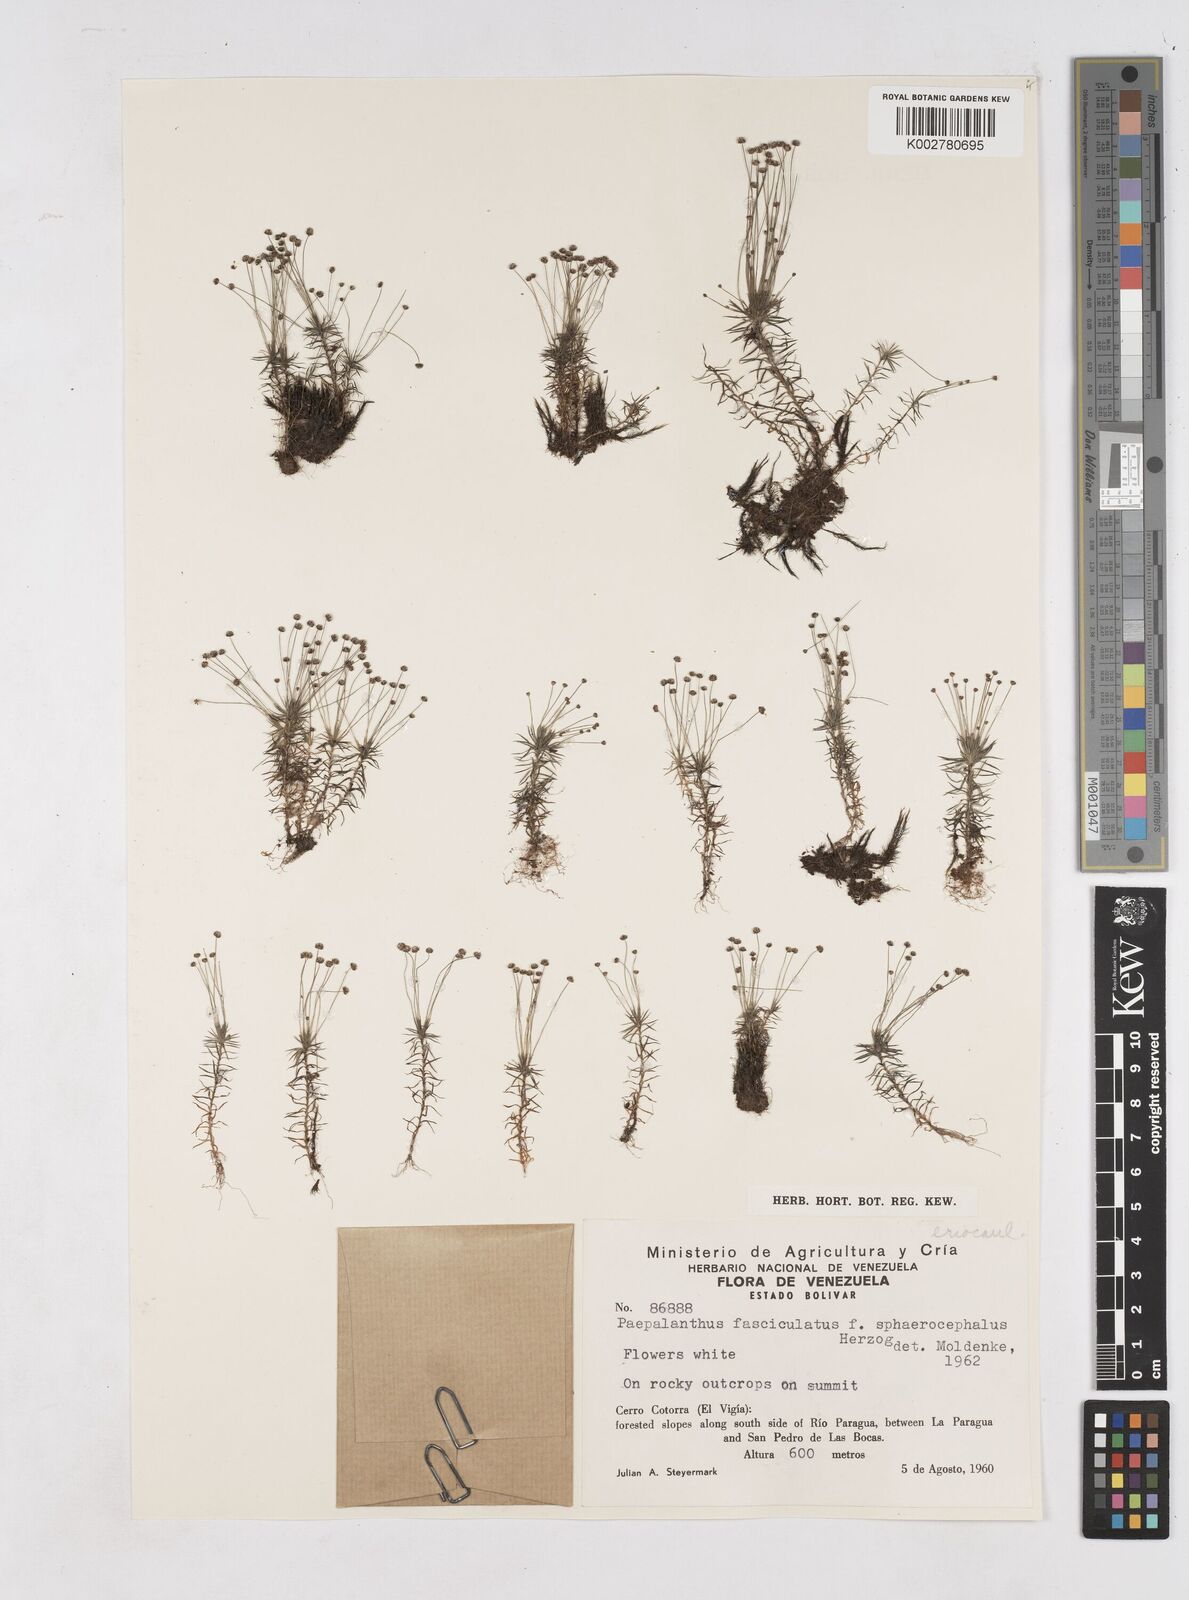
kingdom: Plantae
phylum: Tracheophyta
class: Liliopsida
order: Poales
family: Eriocaulaceae
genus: Paepalanthus
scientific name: Paepalanthus fasciculatus
